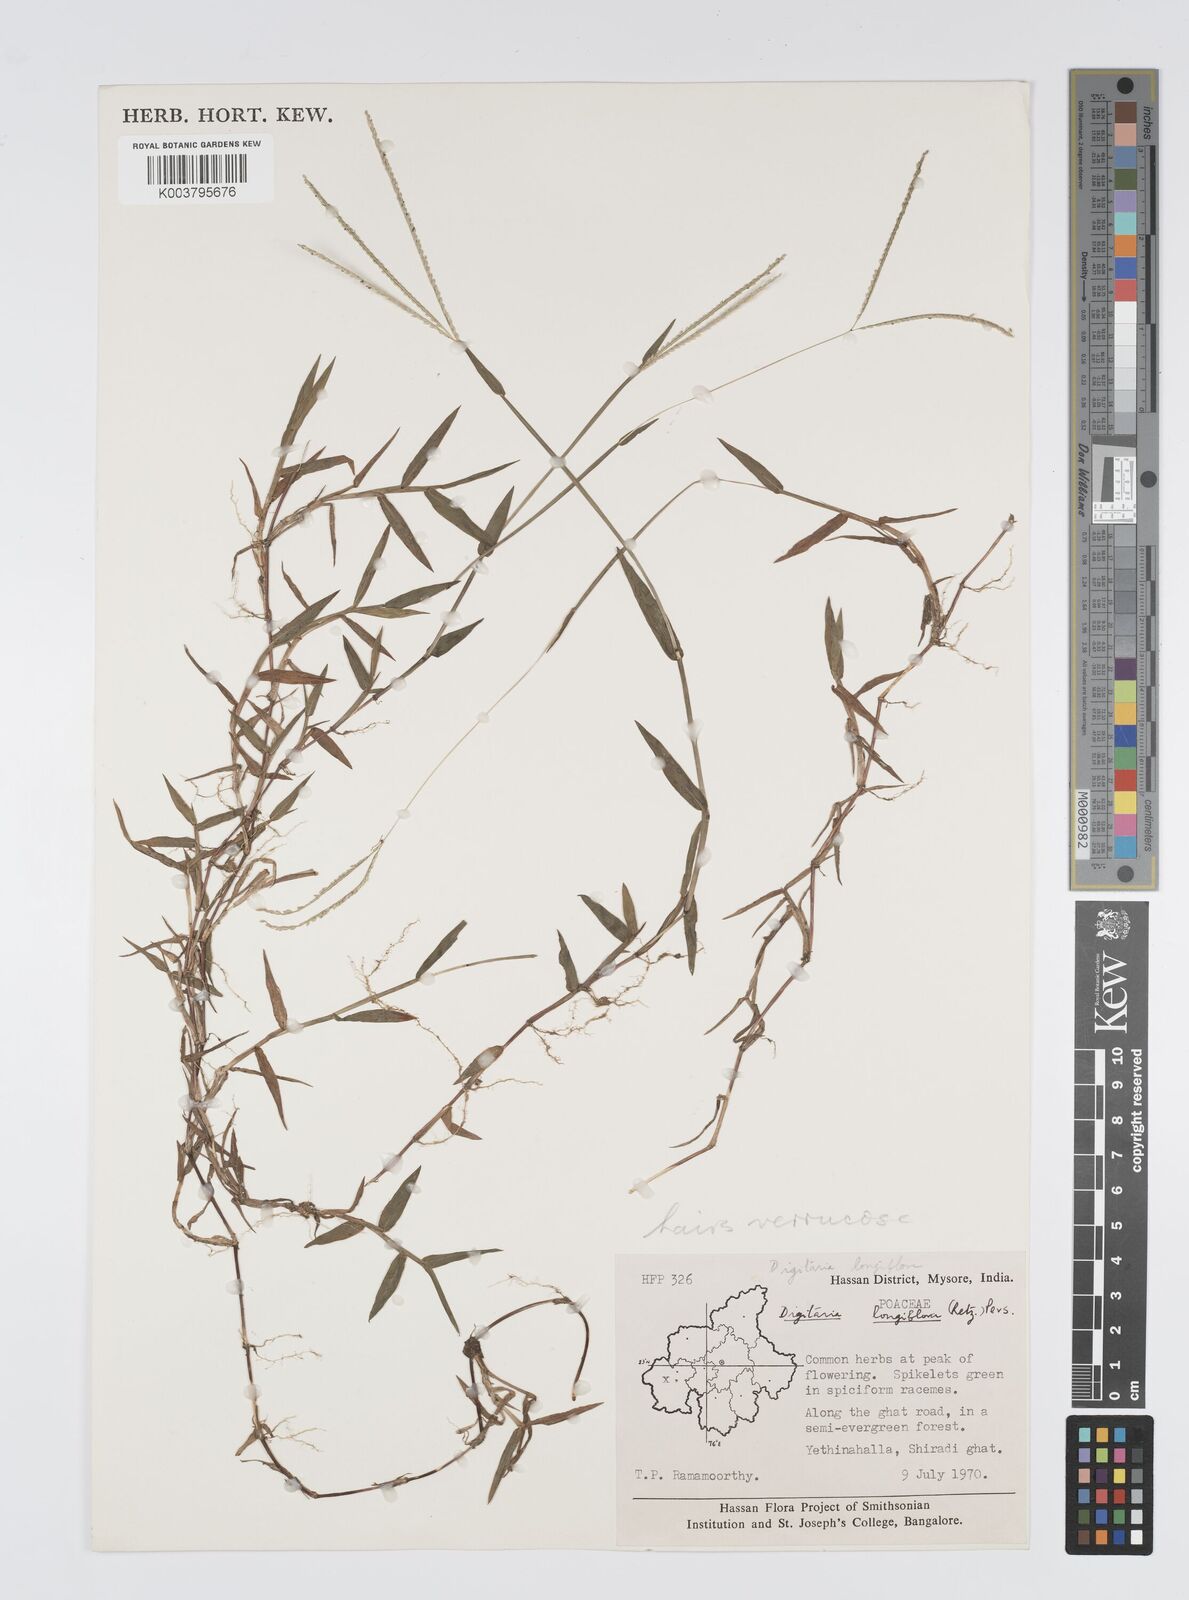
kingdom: Plantae
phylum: Tracheophyta
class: Liliopsida
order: Poales
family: Poaceae
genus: Digitaria
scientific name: Digitaria longiflora
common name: Wire crabgrass
